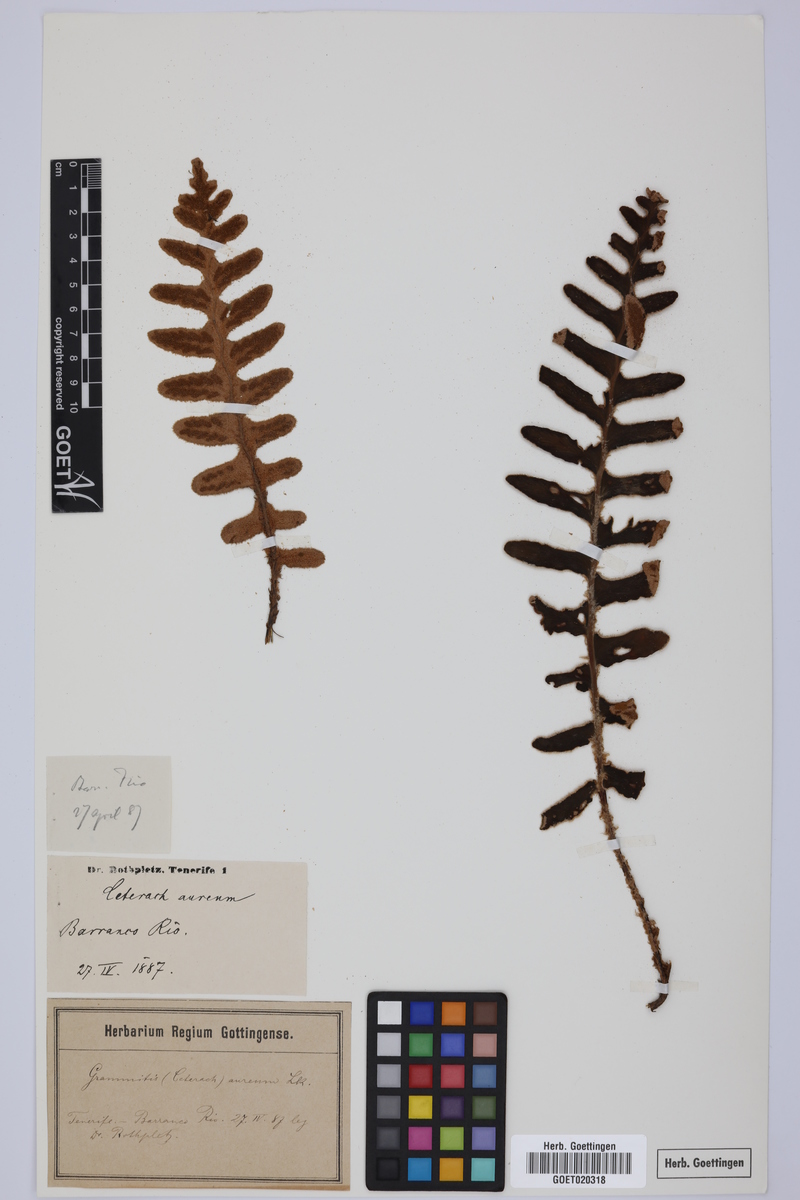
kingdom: Plantae
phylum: Tracheophyta
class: Polypodiopsida
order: Polypodiales
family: Aspleniaceae
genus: Asplenium
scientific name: Asplenium aureum
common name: Golden rustyback fern
